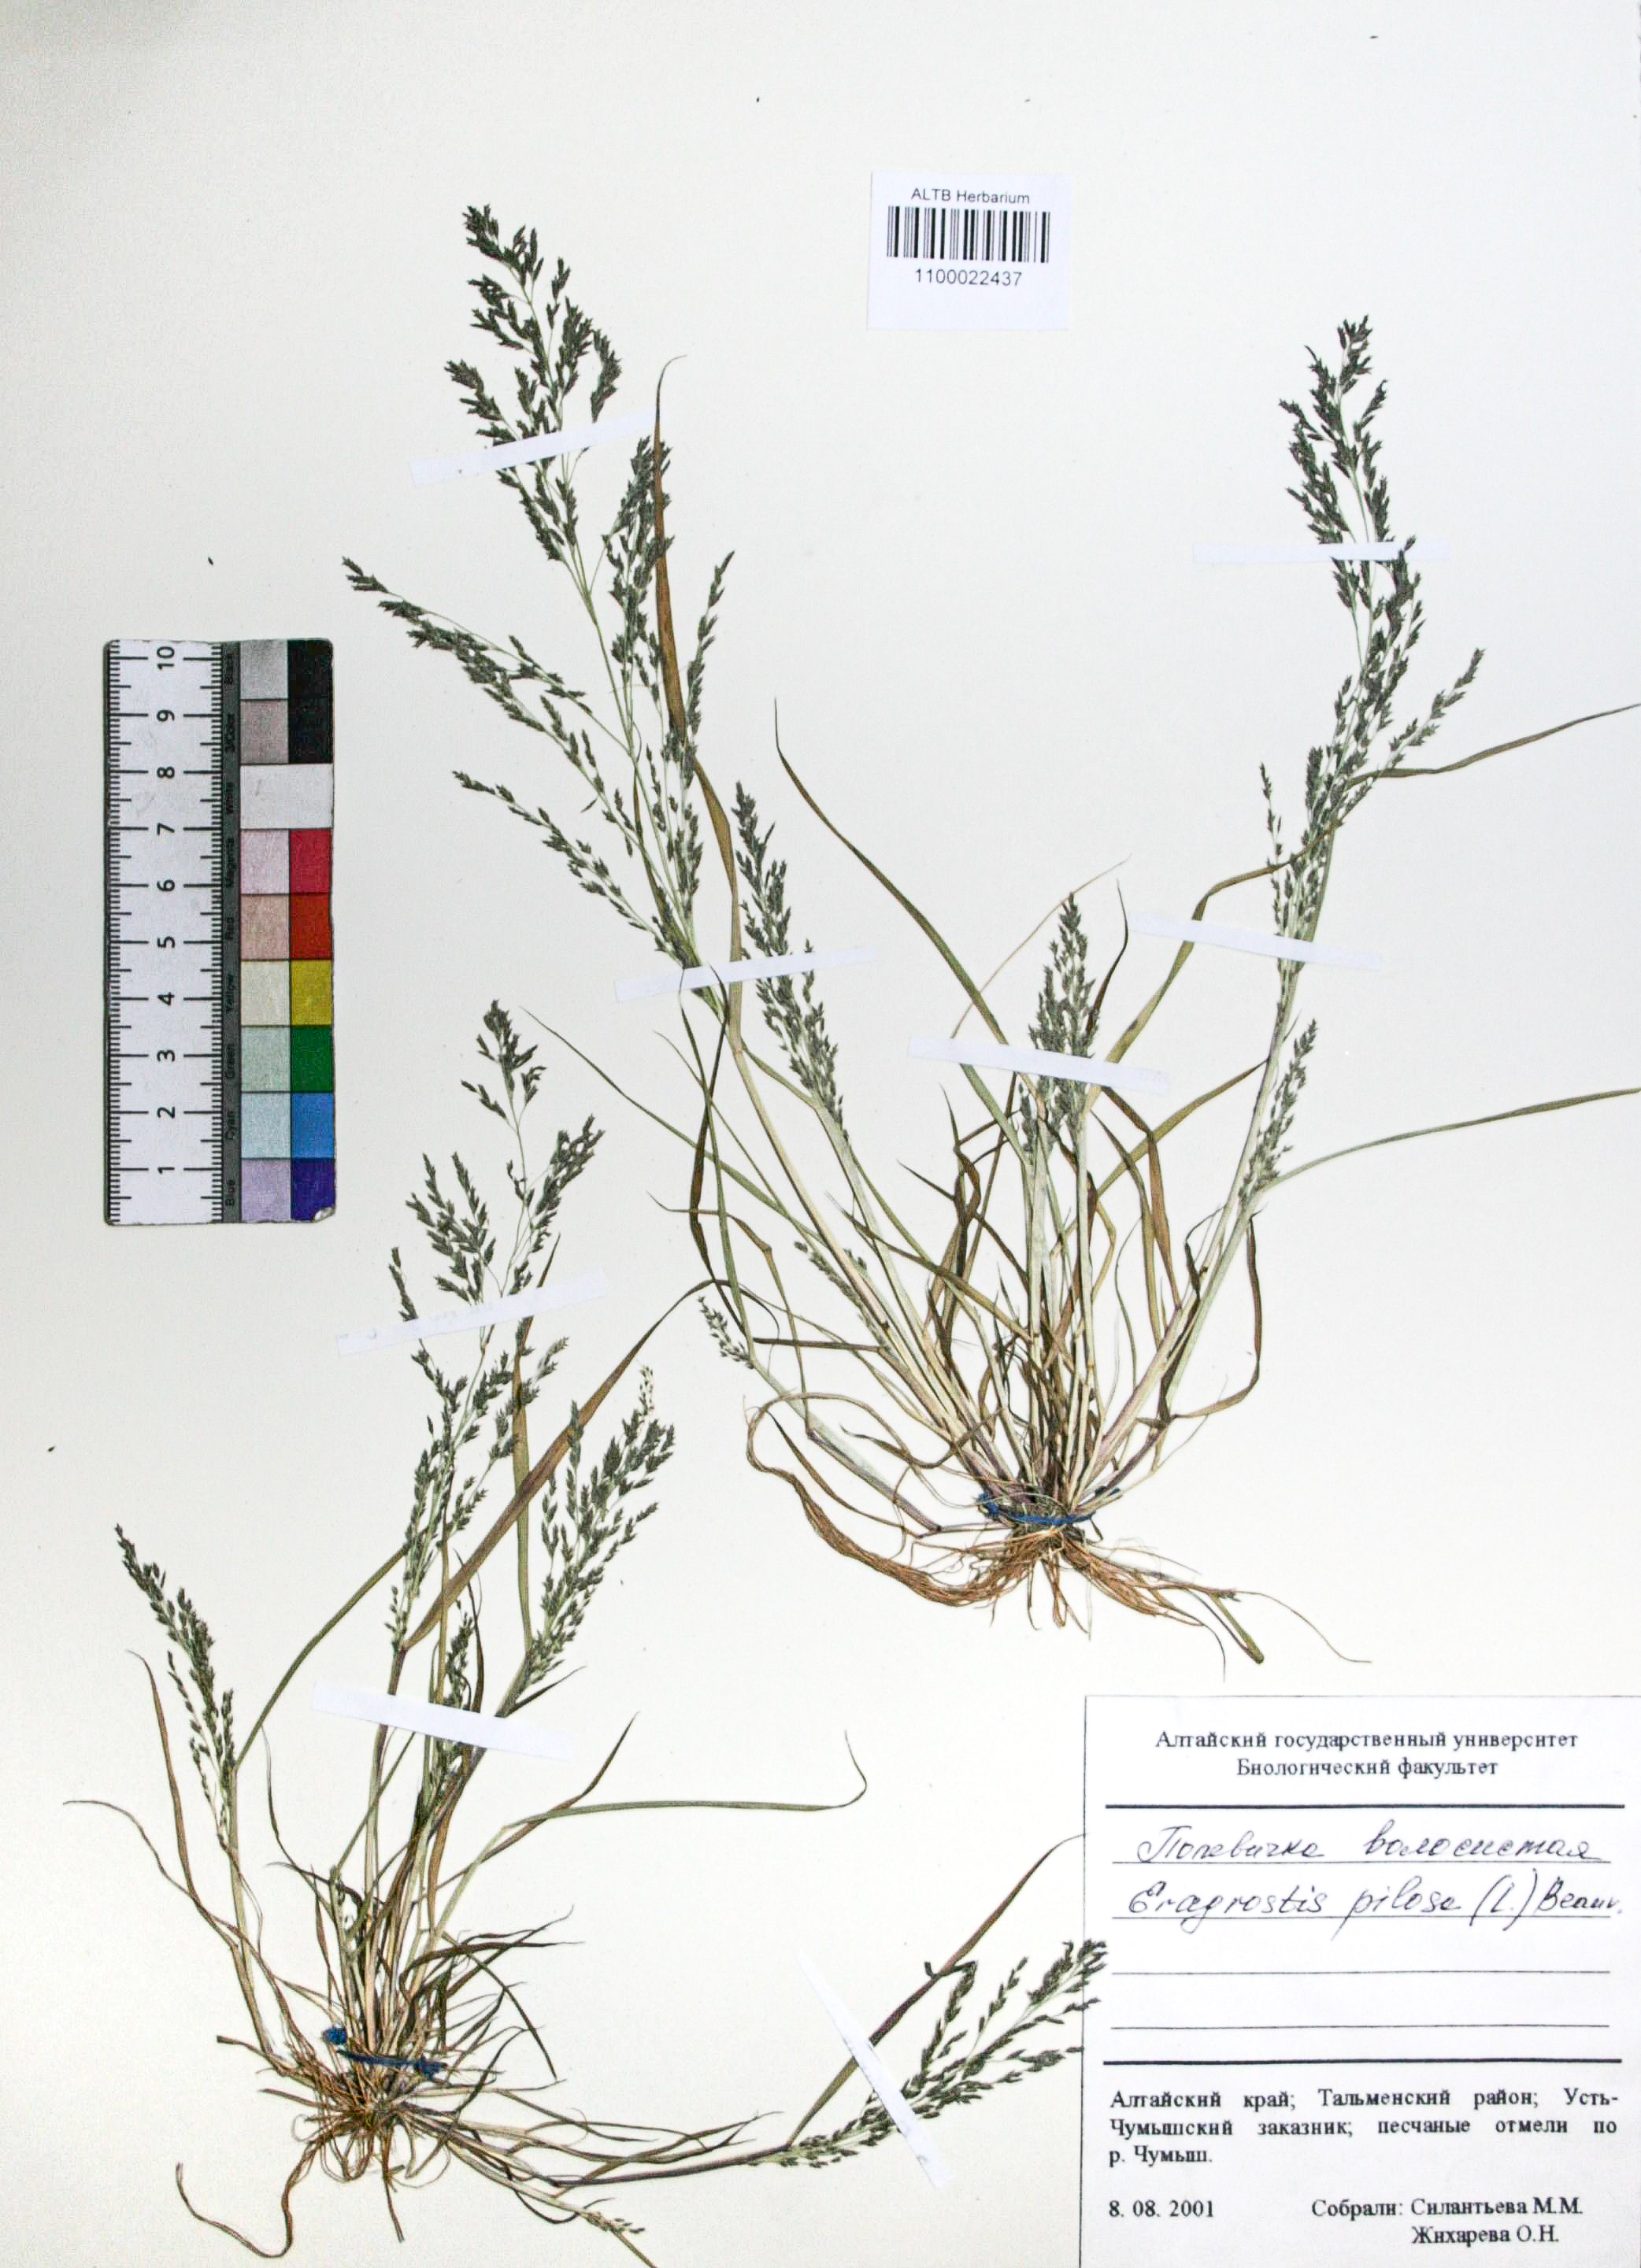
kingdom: Plantae
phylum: Tracheophyta
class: Liliopsida
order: Poales
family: Poaceae
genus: Eragrostis
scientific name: Eragrostis pilosa
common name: Indian lovegrass
